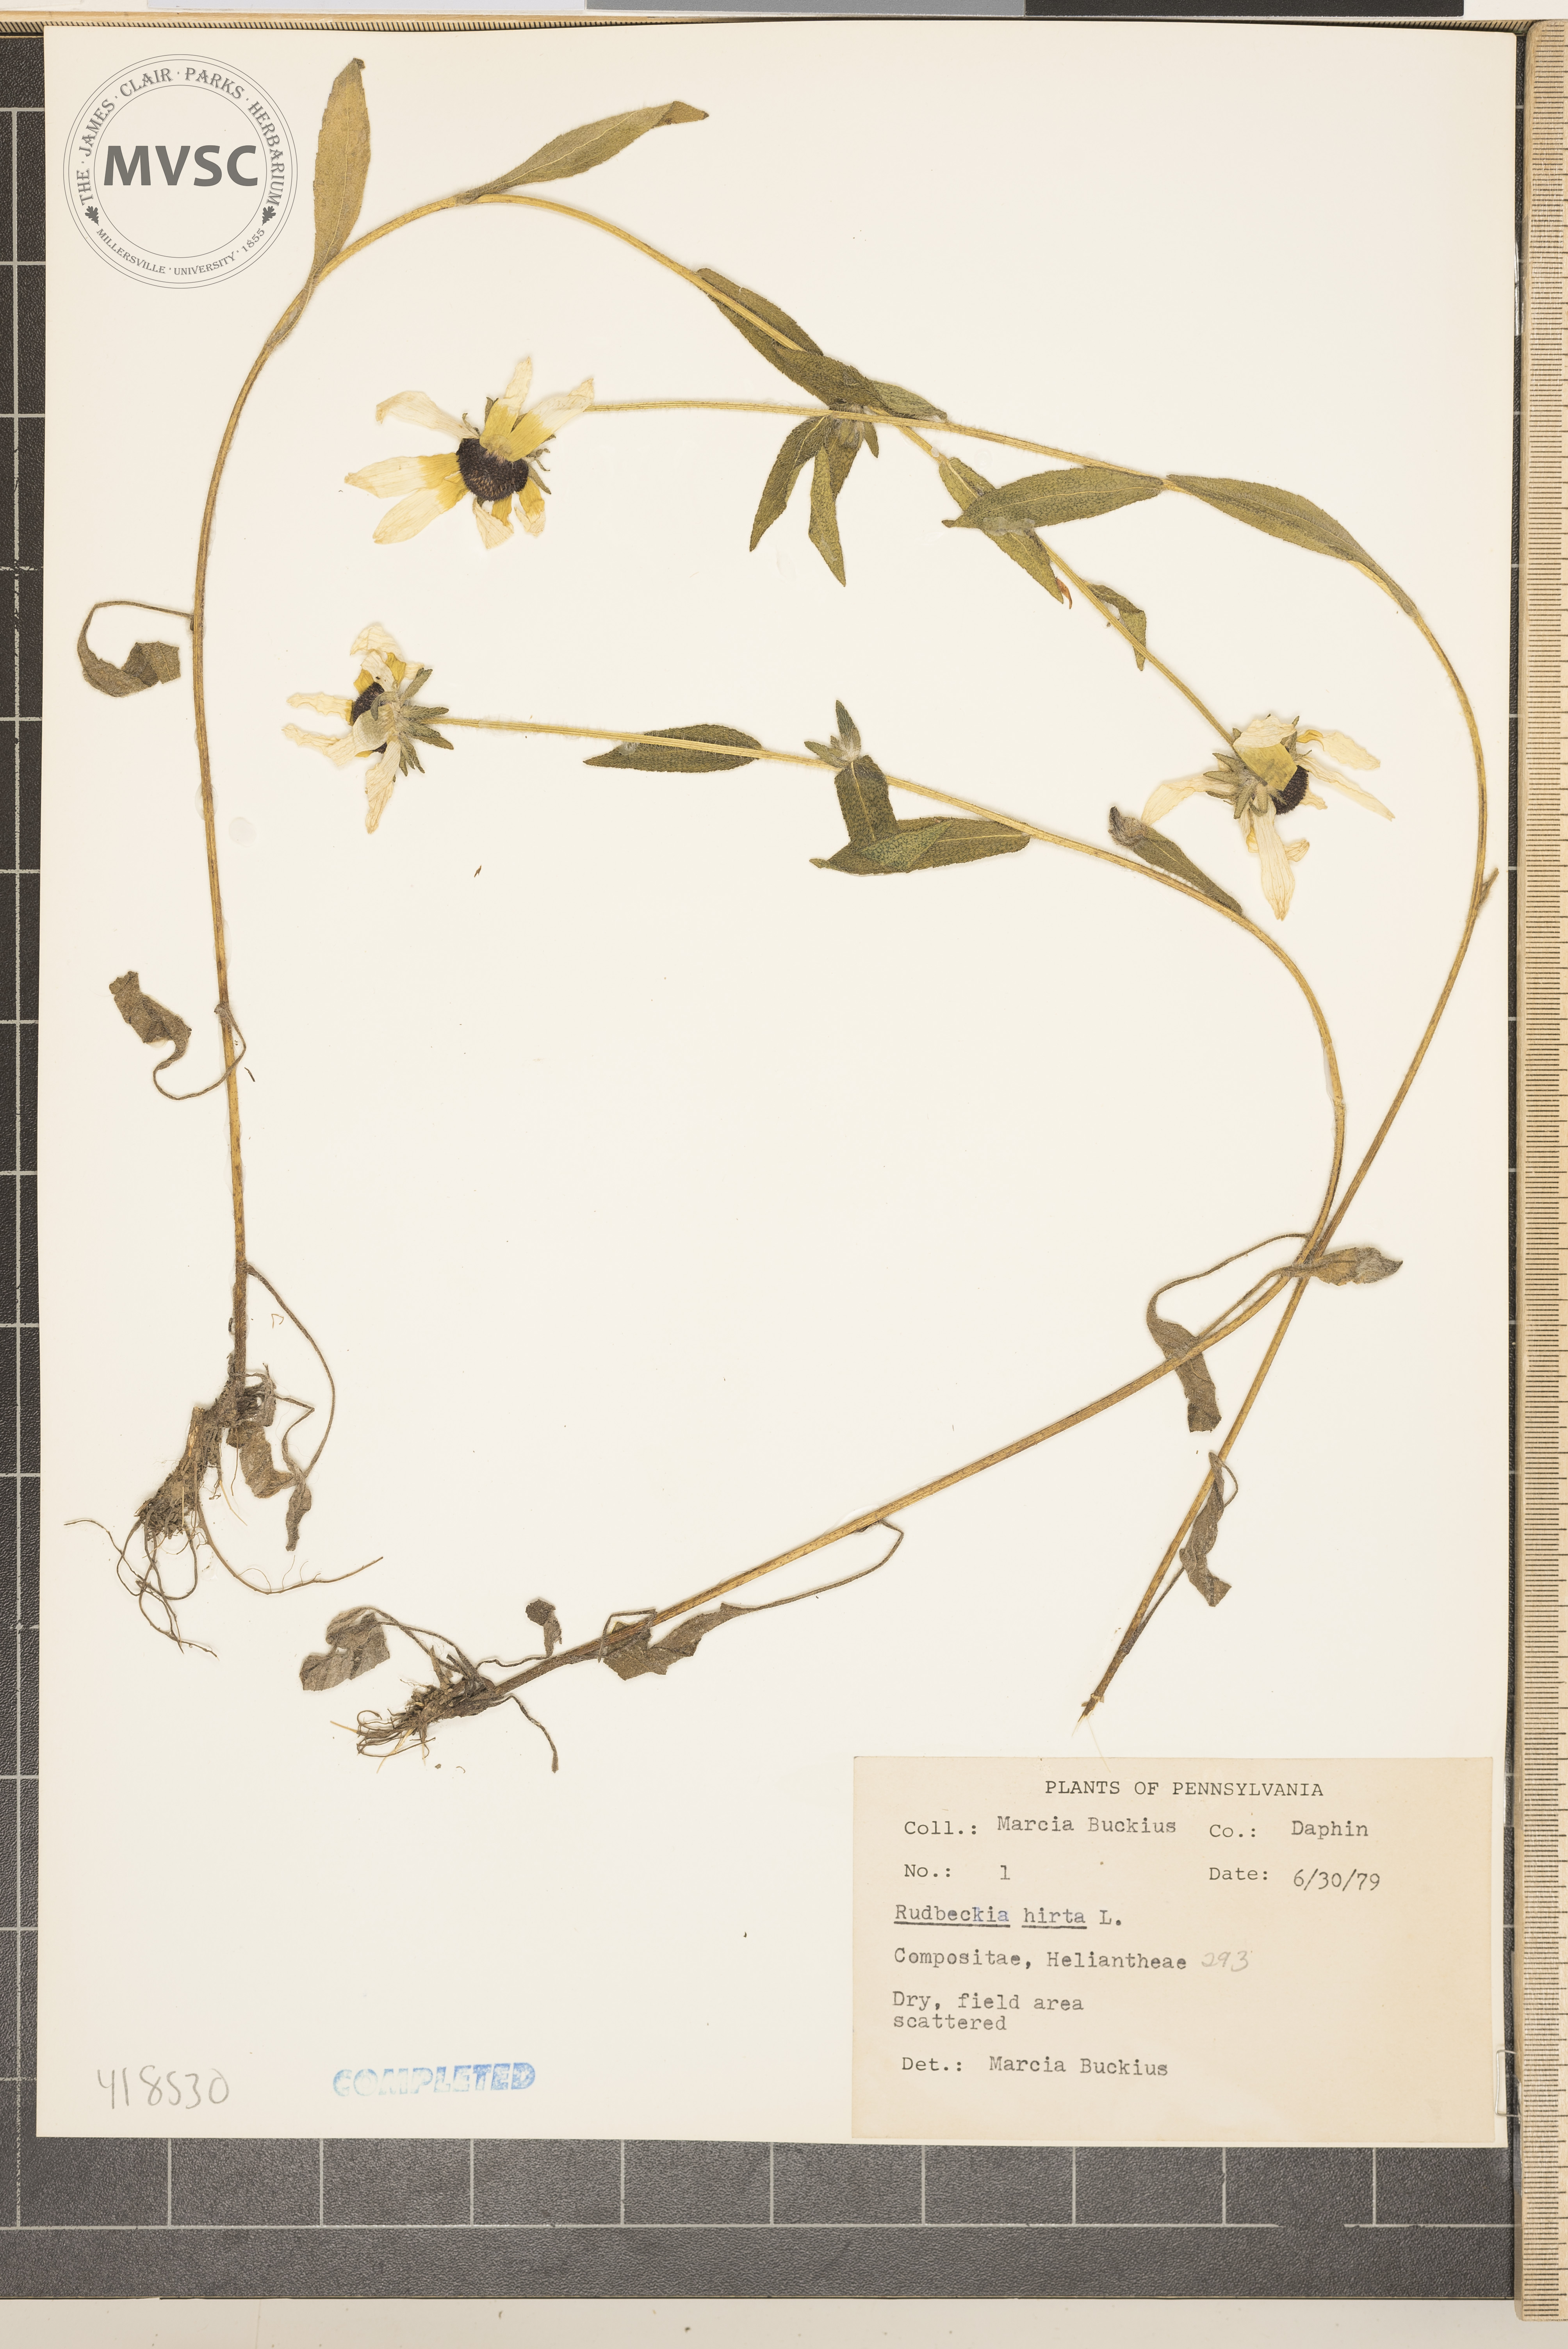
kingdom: Plantae
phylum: Tracheophyta
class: Magnoliopsida
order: Asterales
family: Asteraceae
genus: Rudbeckia
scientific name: Rudbeckia hirta
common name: Black-eyed Susan
